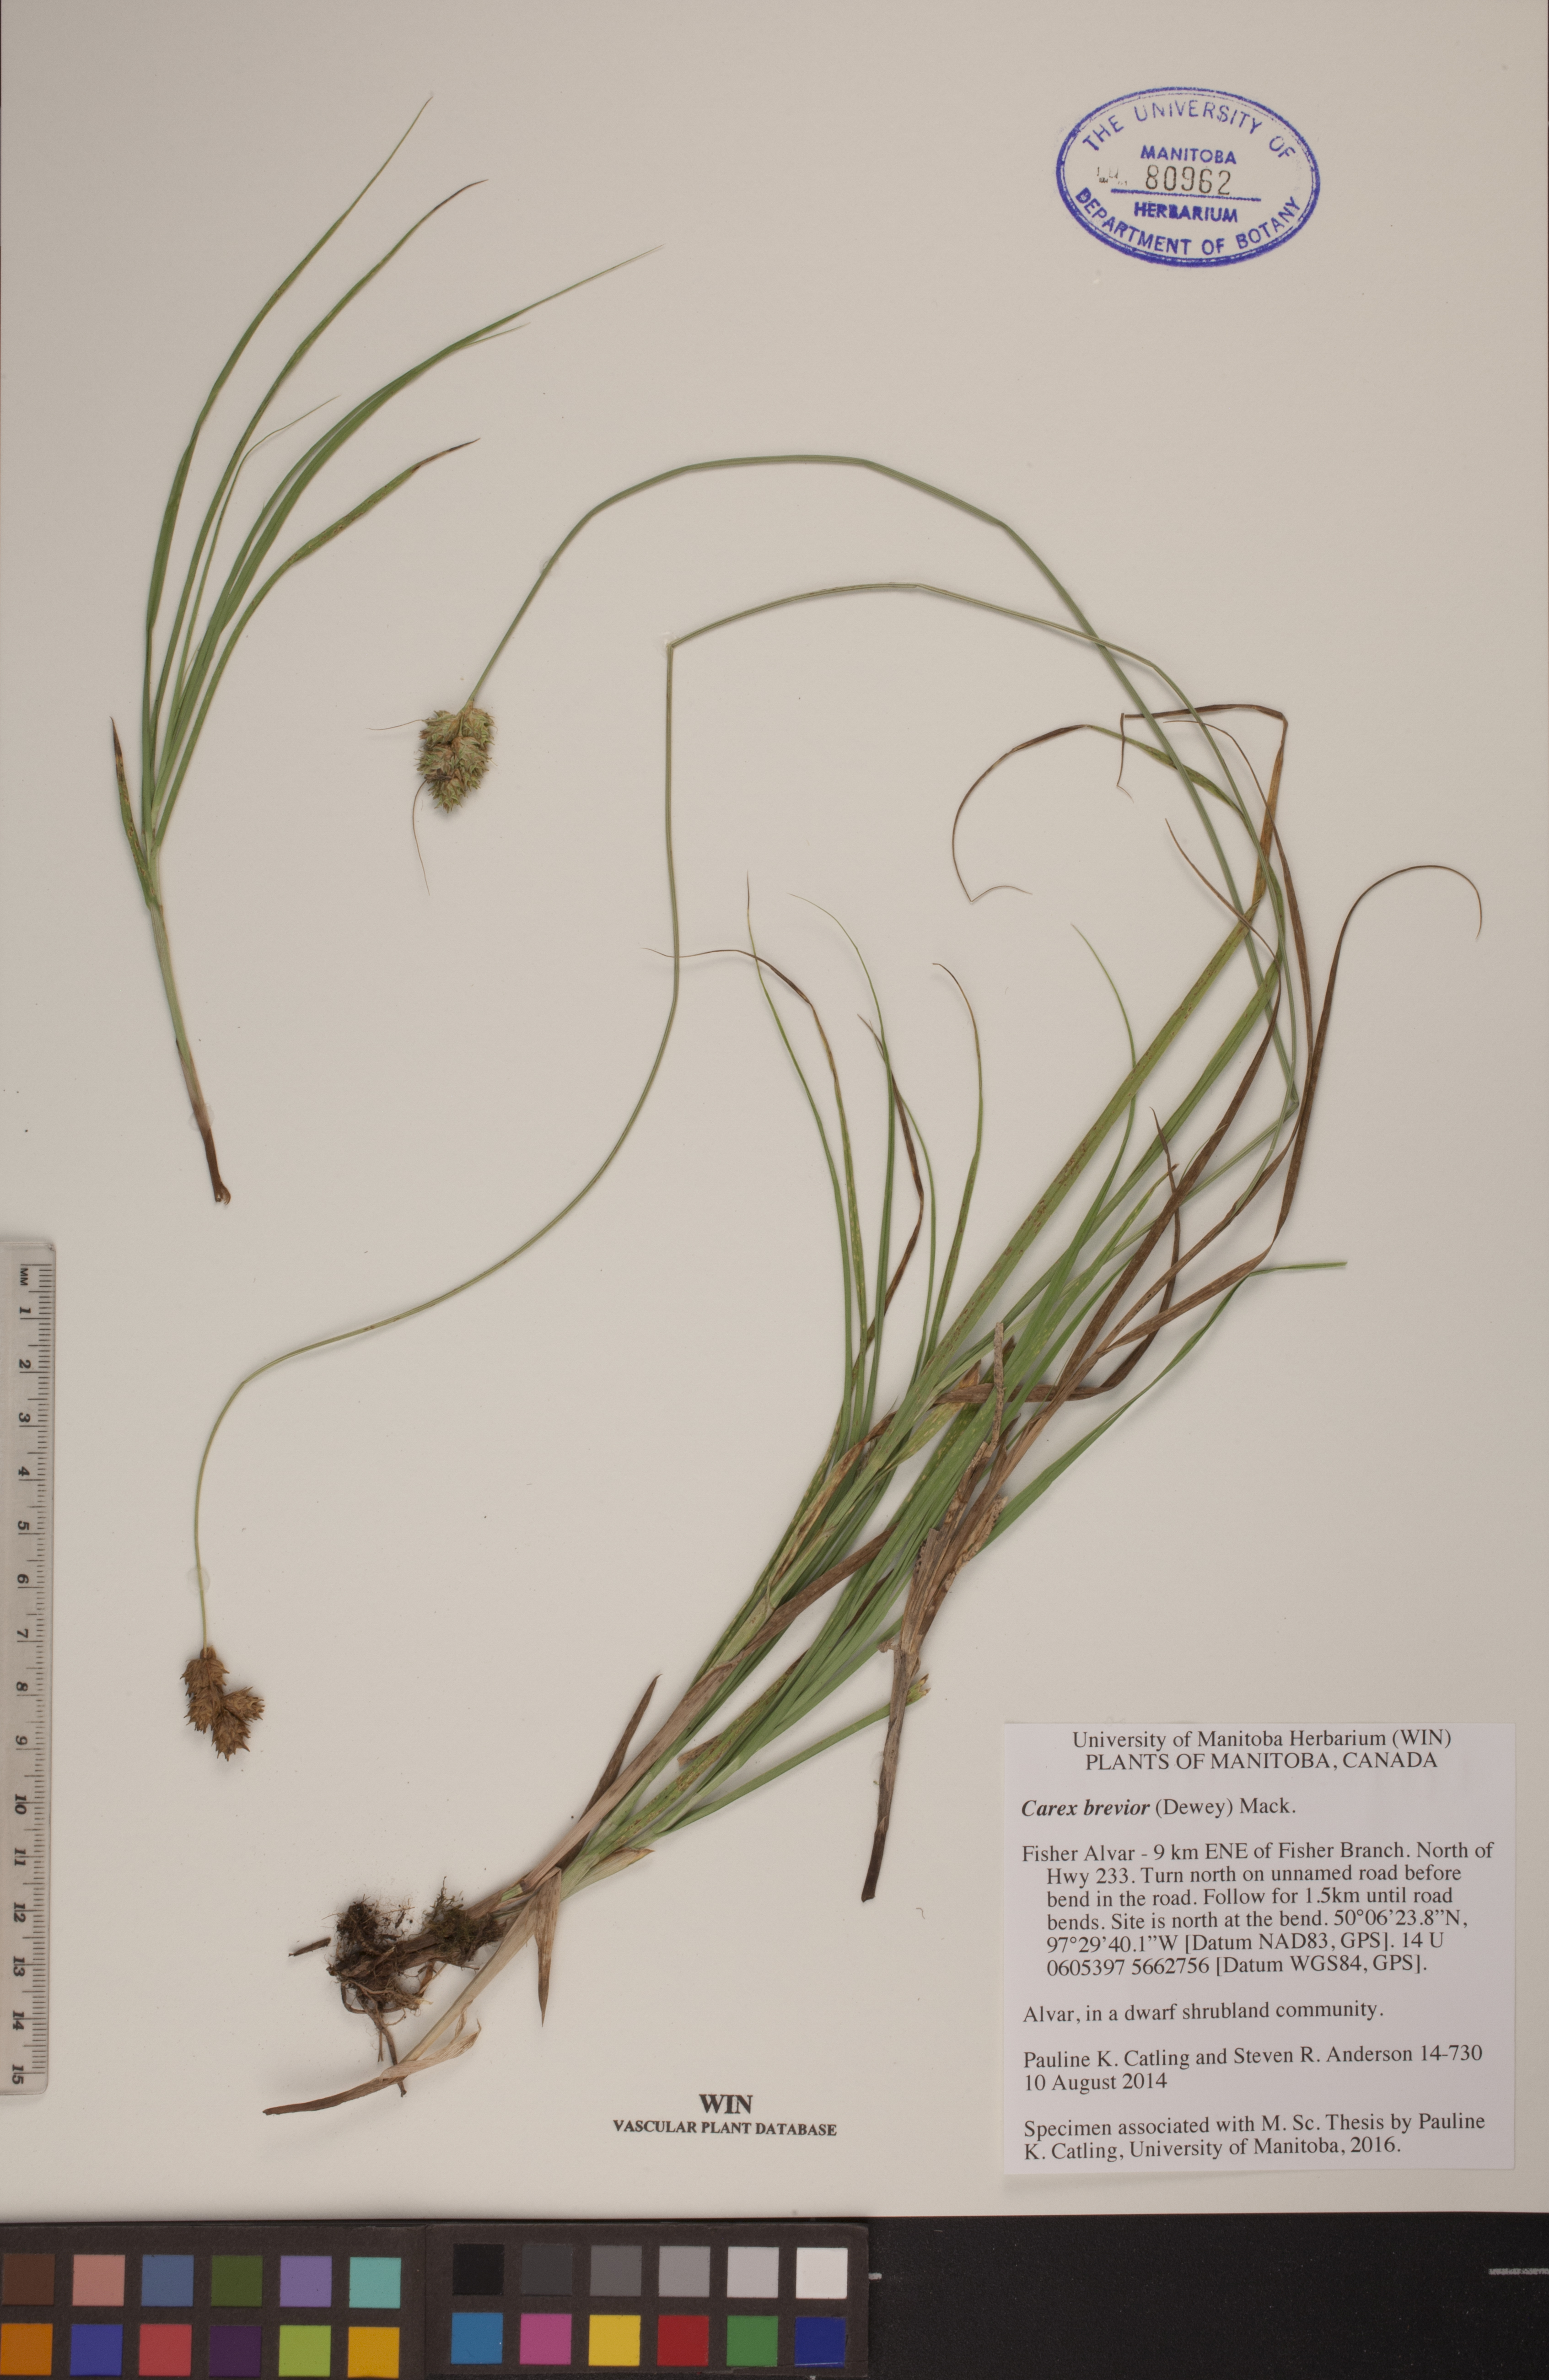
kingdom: Plantae
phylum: Tracheophyta
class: Liliopsida
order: Poales
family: Cyperaceae
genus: Carex
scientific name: Carex brevior
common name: Brevior sedge
